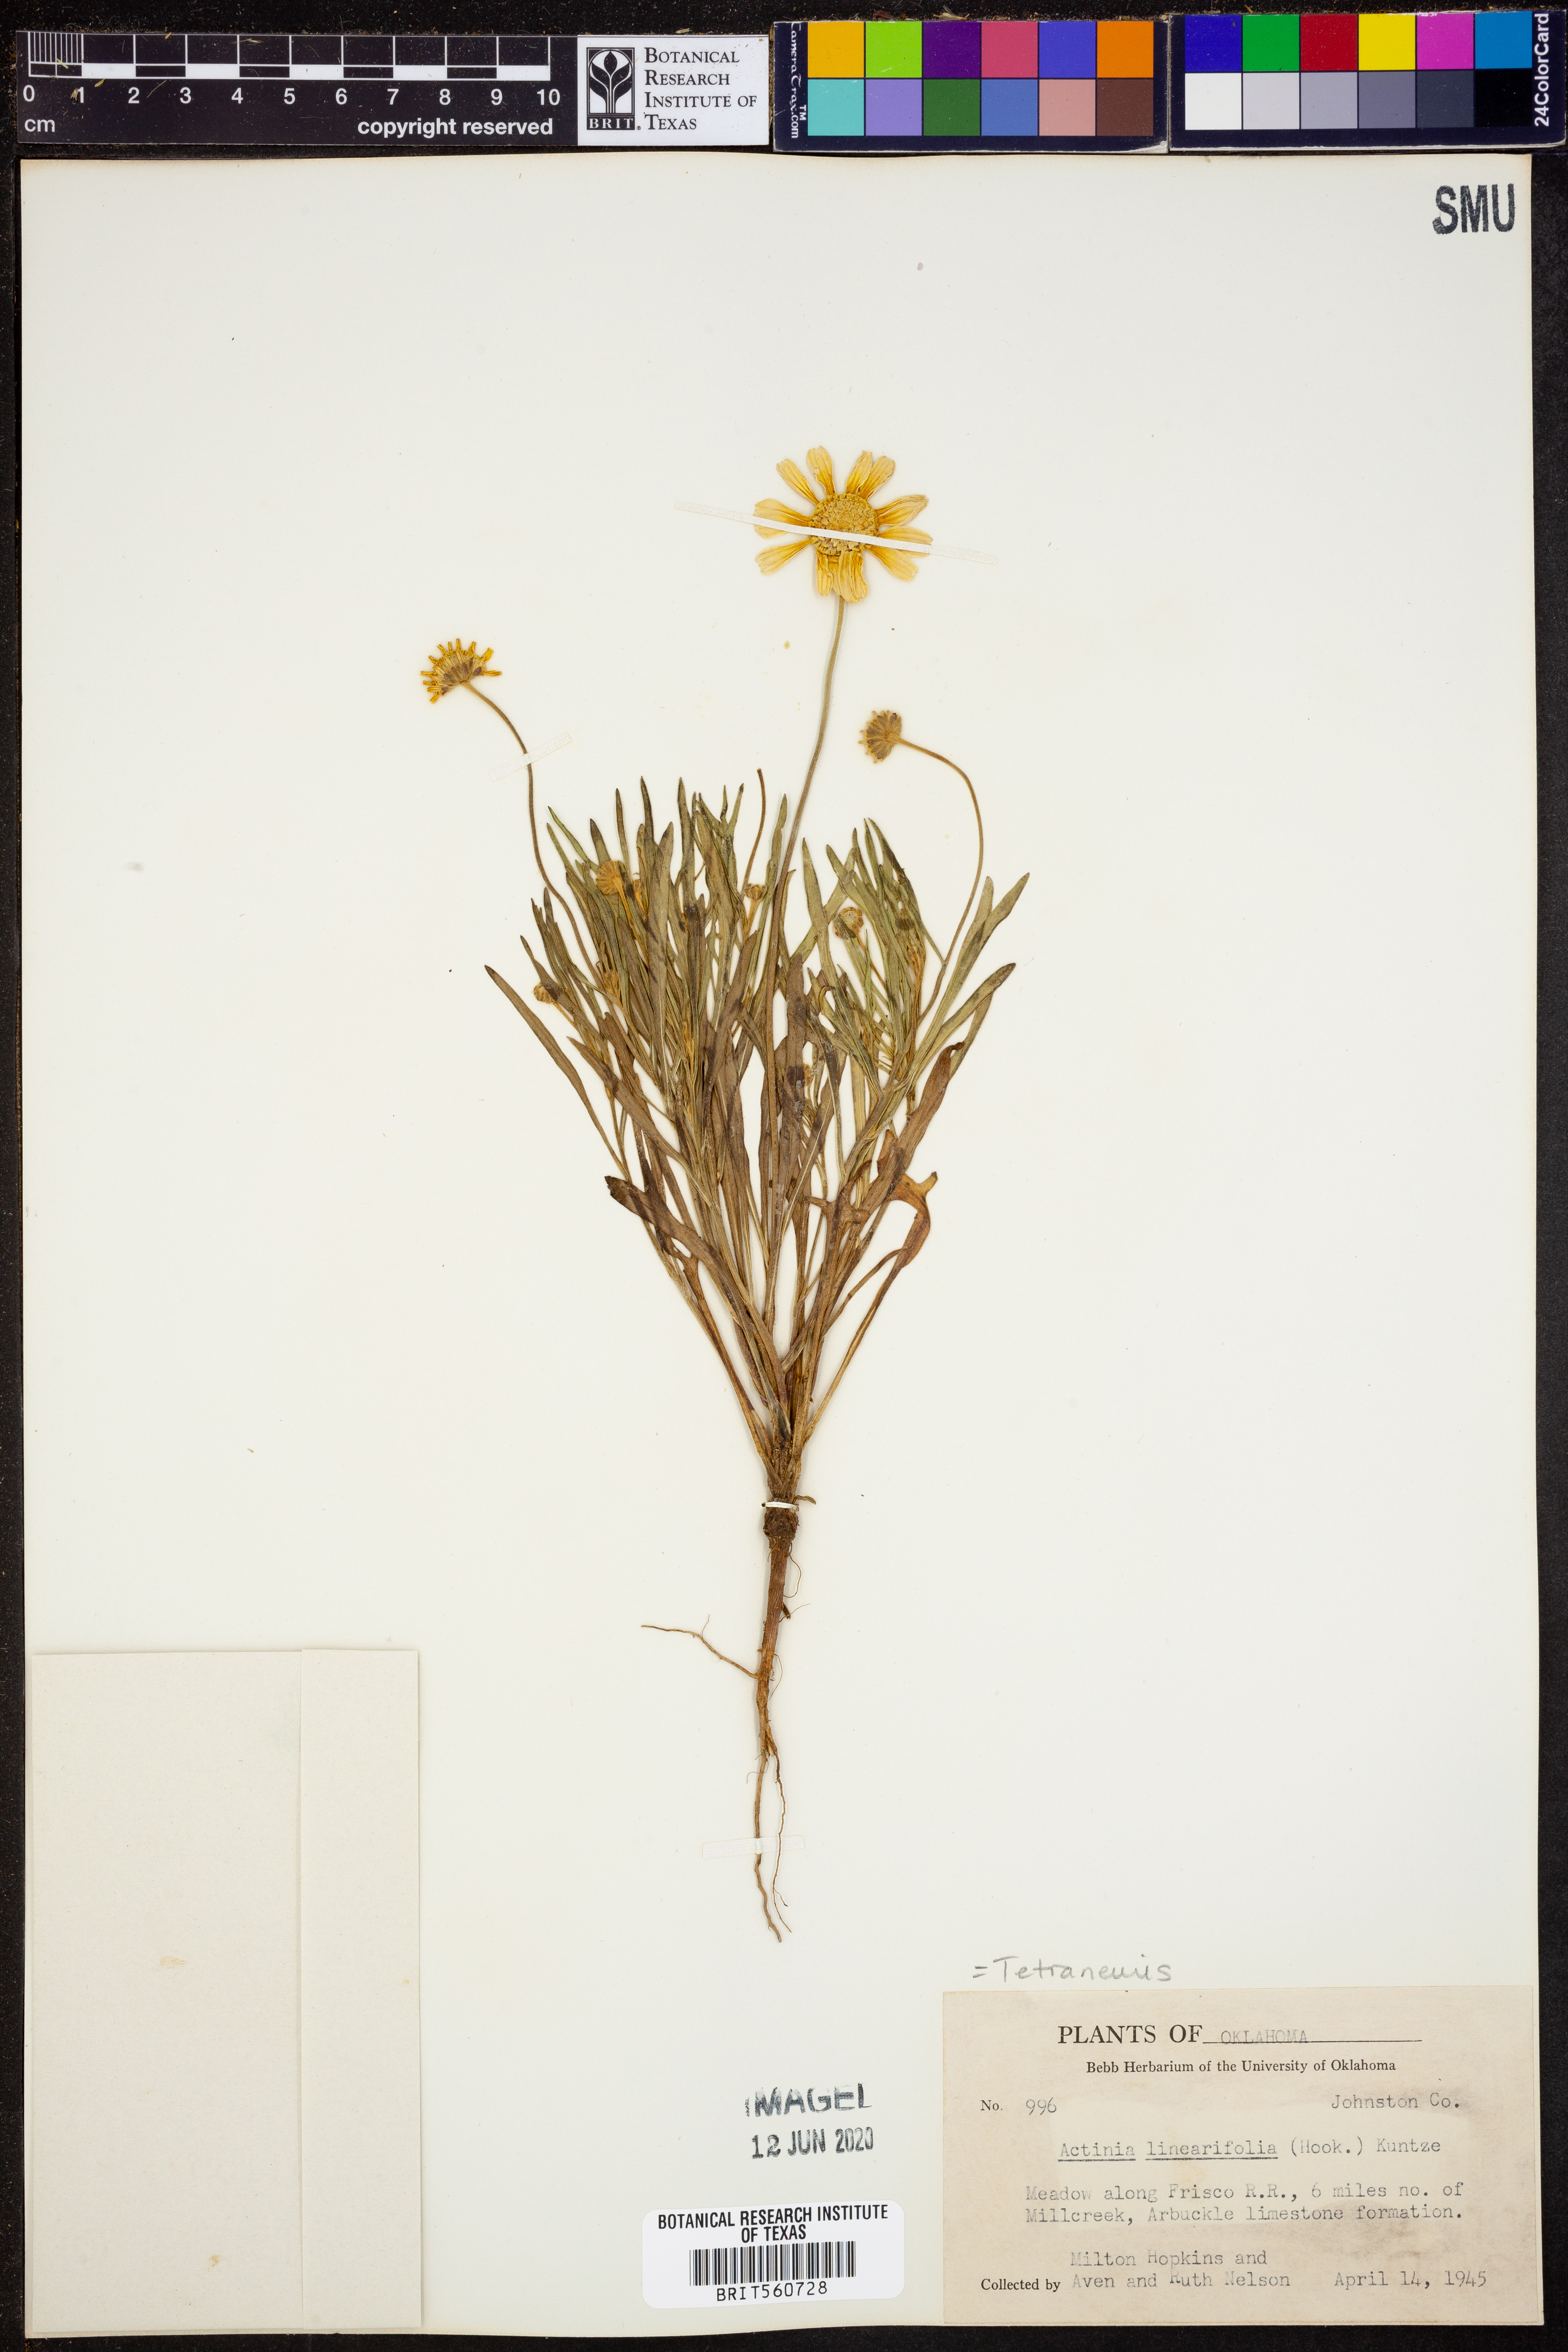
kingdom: Plantae
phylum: Tracheophyta
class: Magnoliopsida
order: Asterales
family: Asteraceae
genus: Tetraneuris
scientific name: Tetraneuris linearifolia
